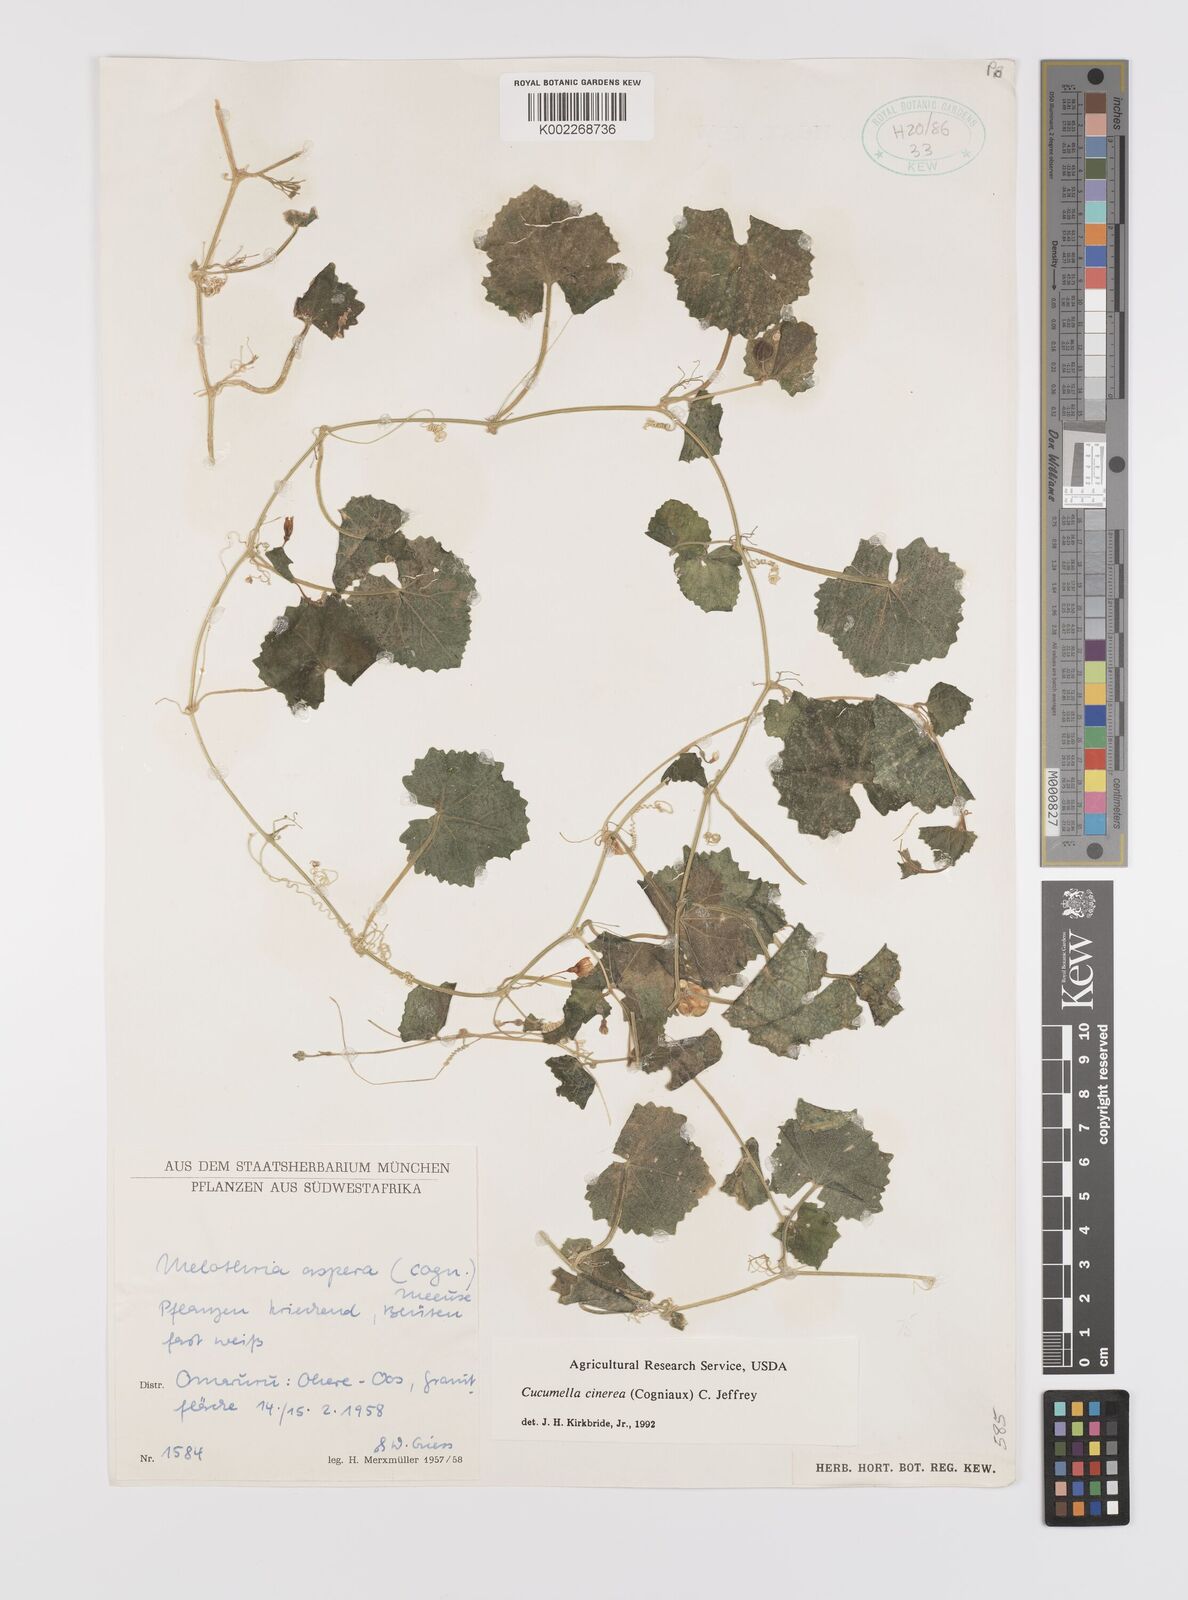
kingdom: Plantae
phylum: Tracheophyta
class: Magnoliopsida
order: Cucurbitales
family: Cucurbitaceae
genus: Cucumis
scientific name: Cucumis cinereus
